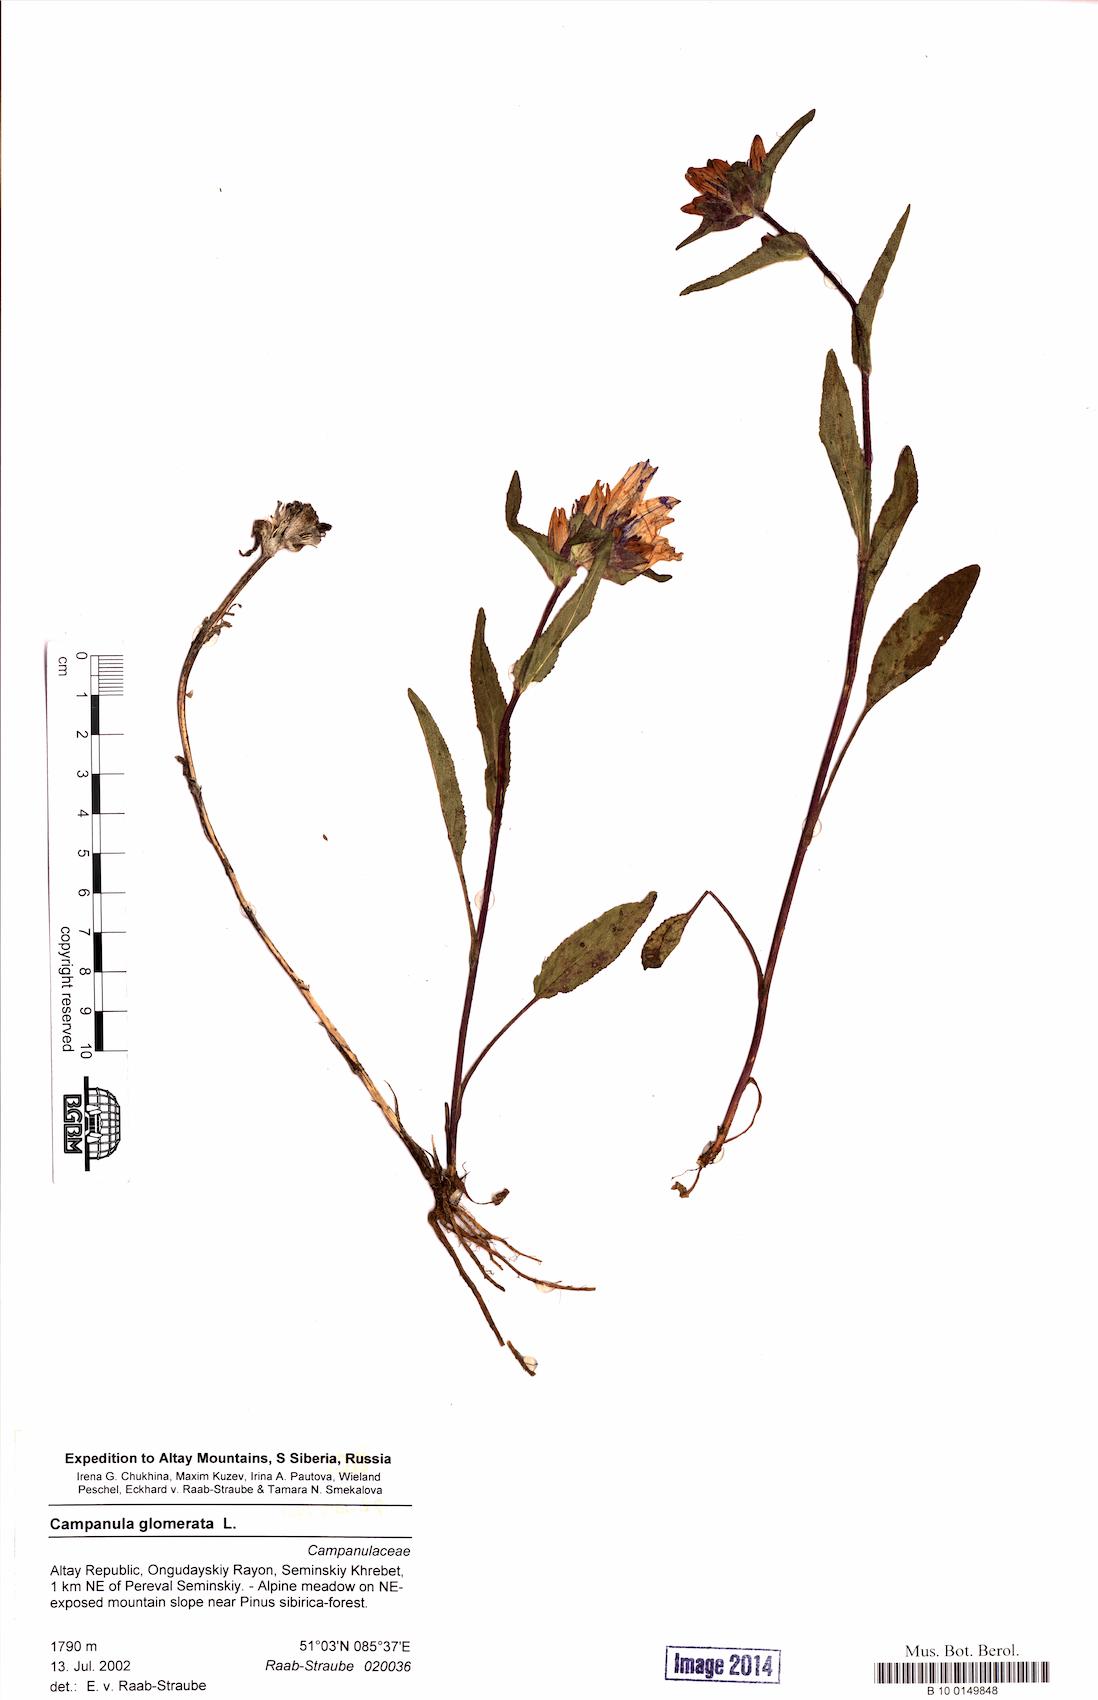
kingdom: Plantae
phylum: Tracheophyta
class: Magnoliopsida
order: Asterales
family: Campanulaceae
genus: Campanula
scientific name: Campanula glomerata
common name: Clustered bellflower
